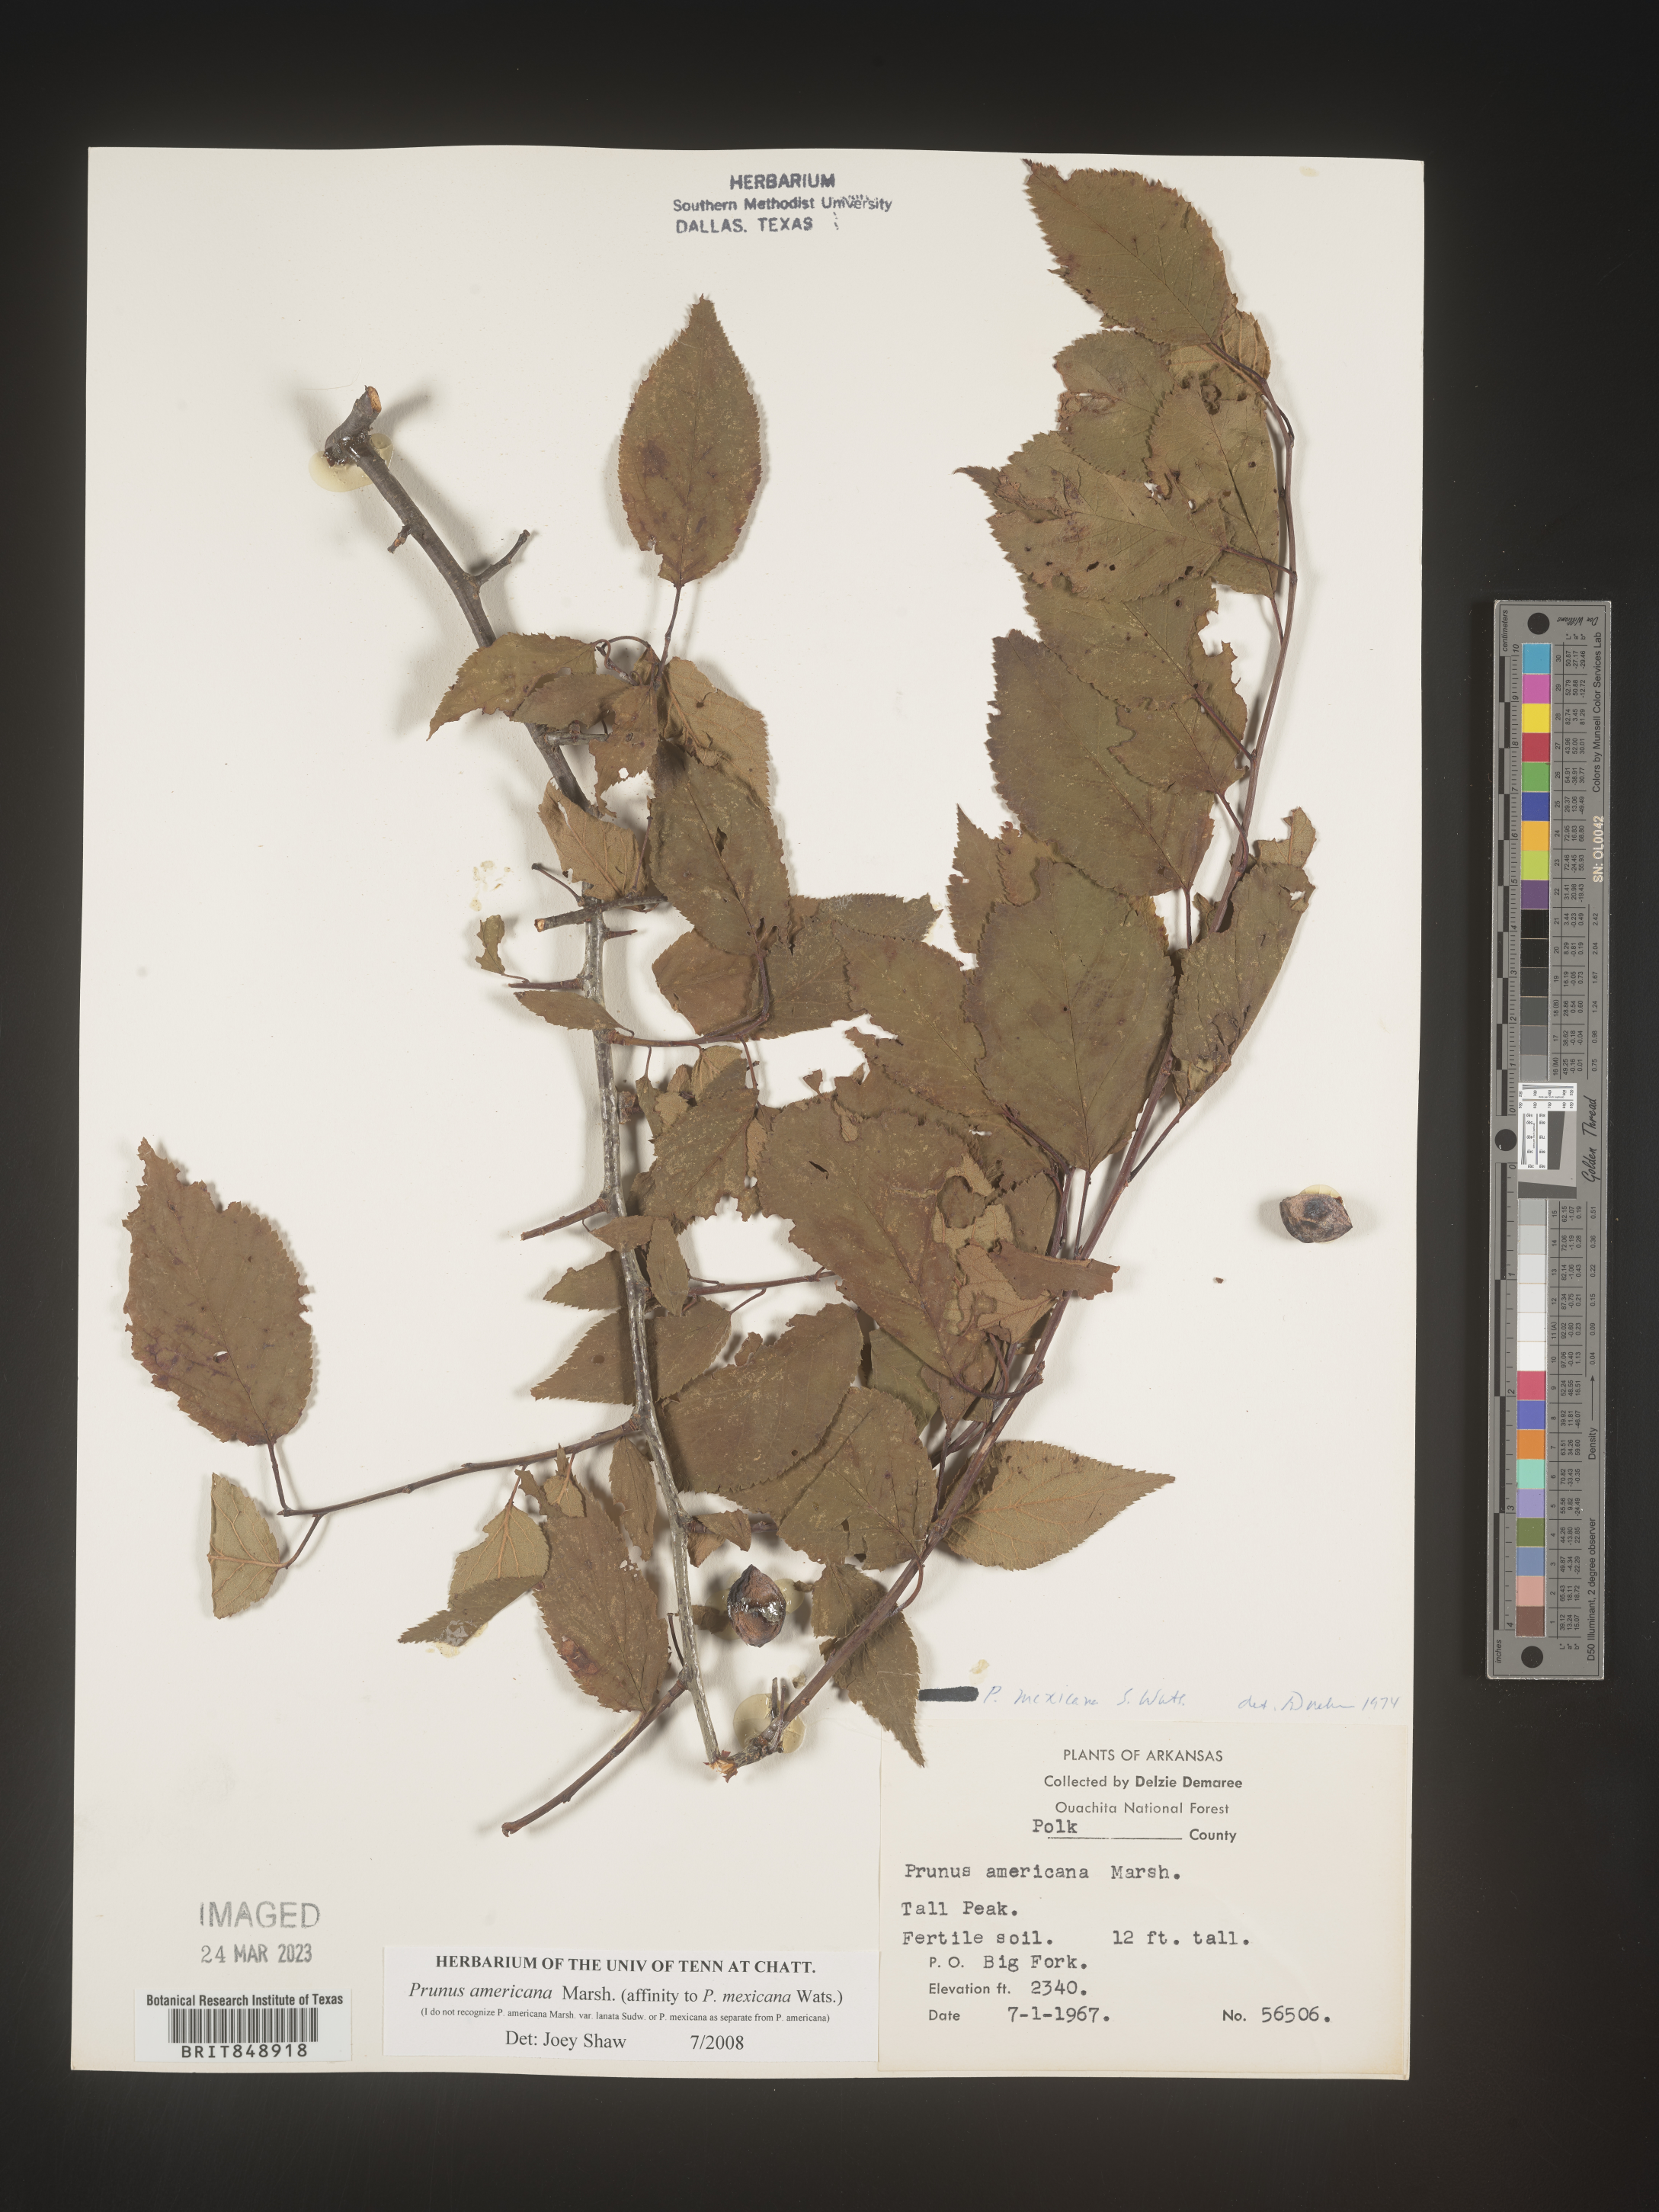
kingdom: Plantae
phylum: Tracheophyta
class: Magnoliopsida
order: Rosales
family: Rosaceae
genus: Prunus
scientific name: Prunus americana
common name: American plum
